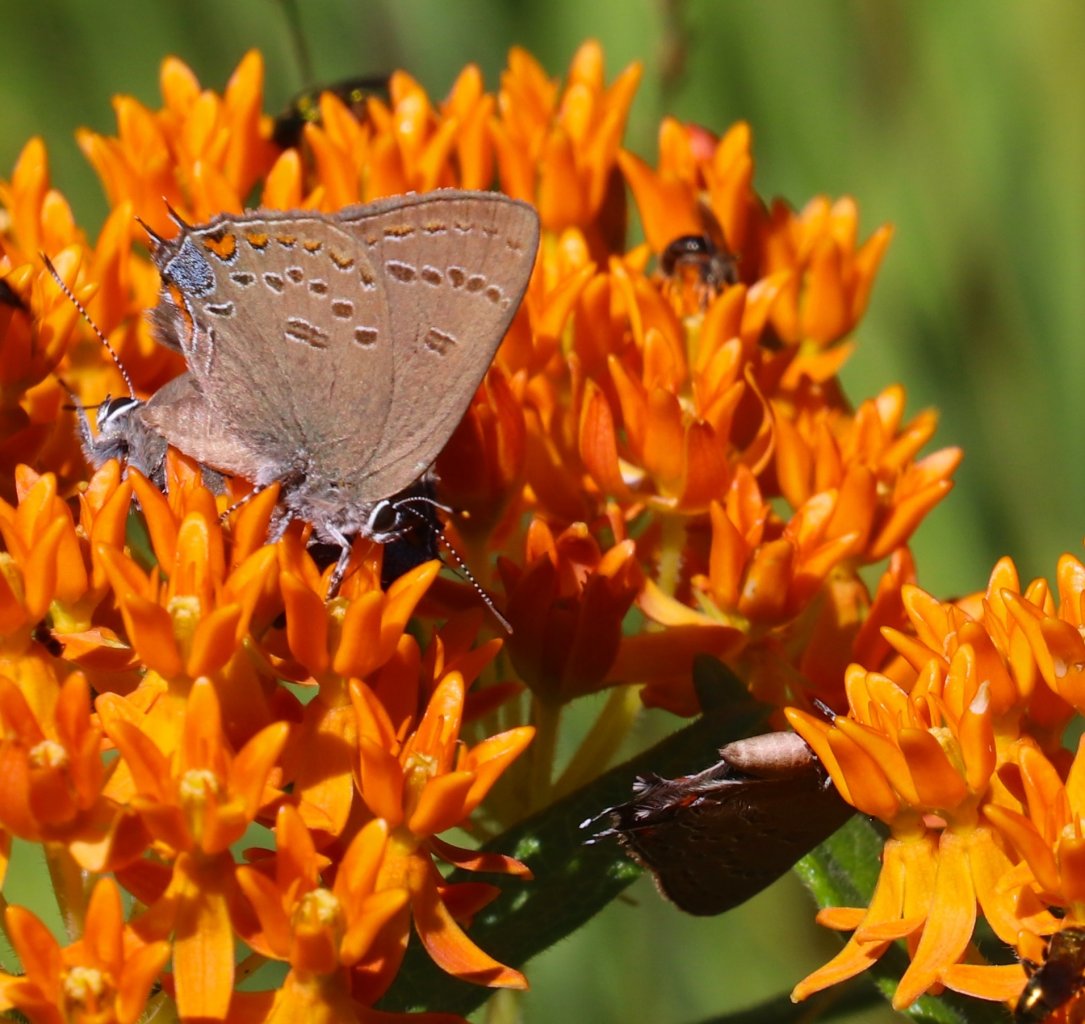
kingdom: Animalia
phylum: Arthropoda
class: Insecta
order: Lepidoptera
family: Lycaenidae
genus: Satyrium
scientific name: Satyrium edwardsii
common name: Edwards' Hairstreak
